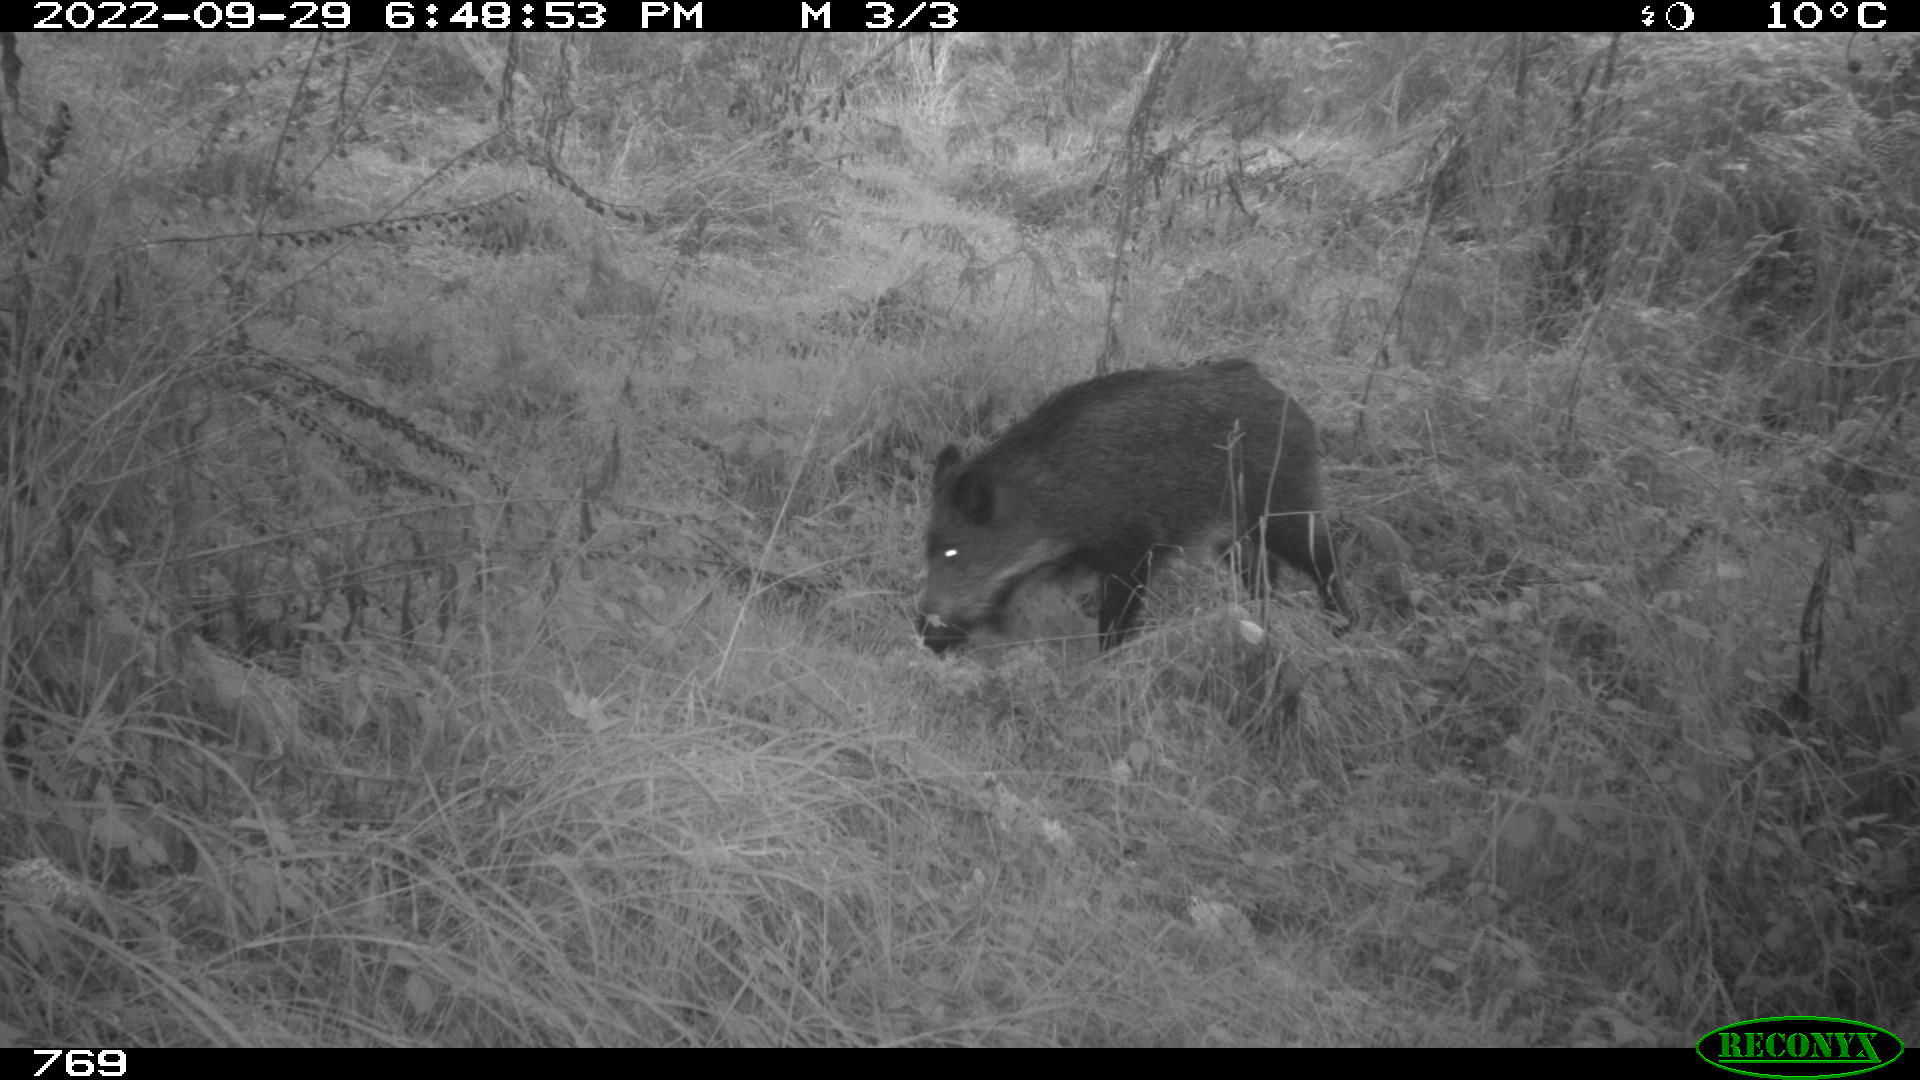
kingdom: Animalia
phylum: Chordata
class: Mammalia
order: Artiodactyla
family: Suidae
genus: Sus
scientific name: Sus scrofa
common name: Wild boar
